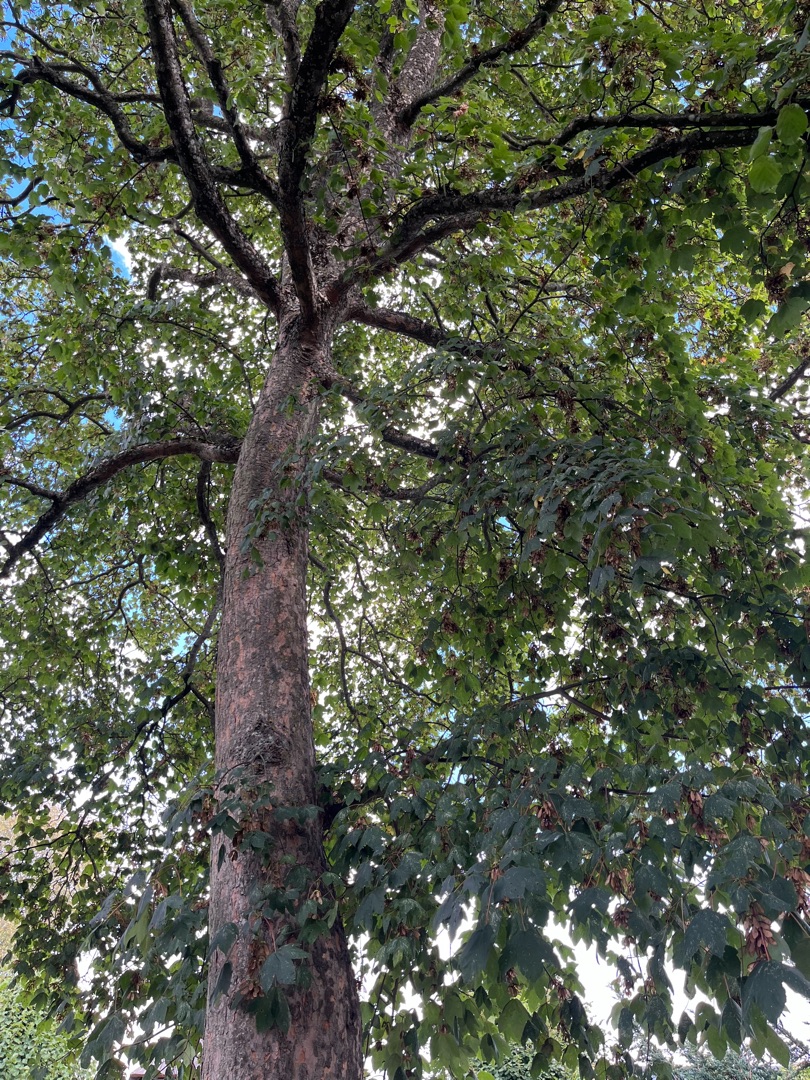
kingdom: Plantae
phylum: Tracheophyta
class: Magnoliopsida
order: Sapindales
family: Sapindaceae
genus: Acer
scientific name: Acer pseudoplatanus
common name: Ahorn
